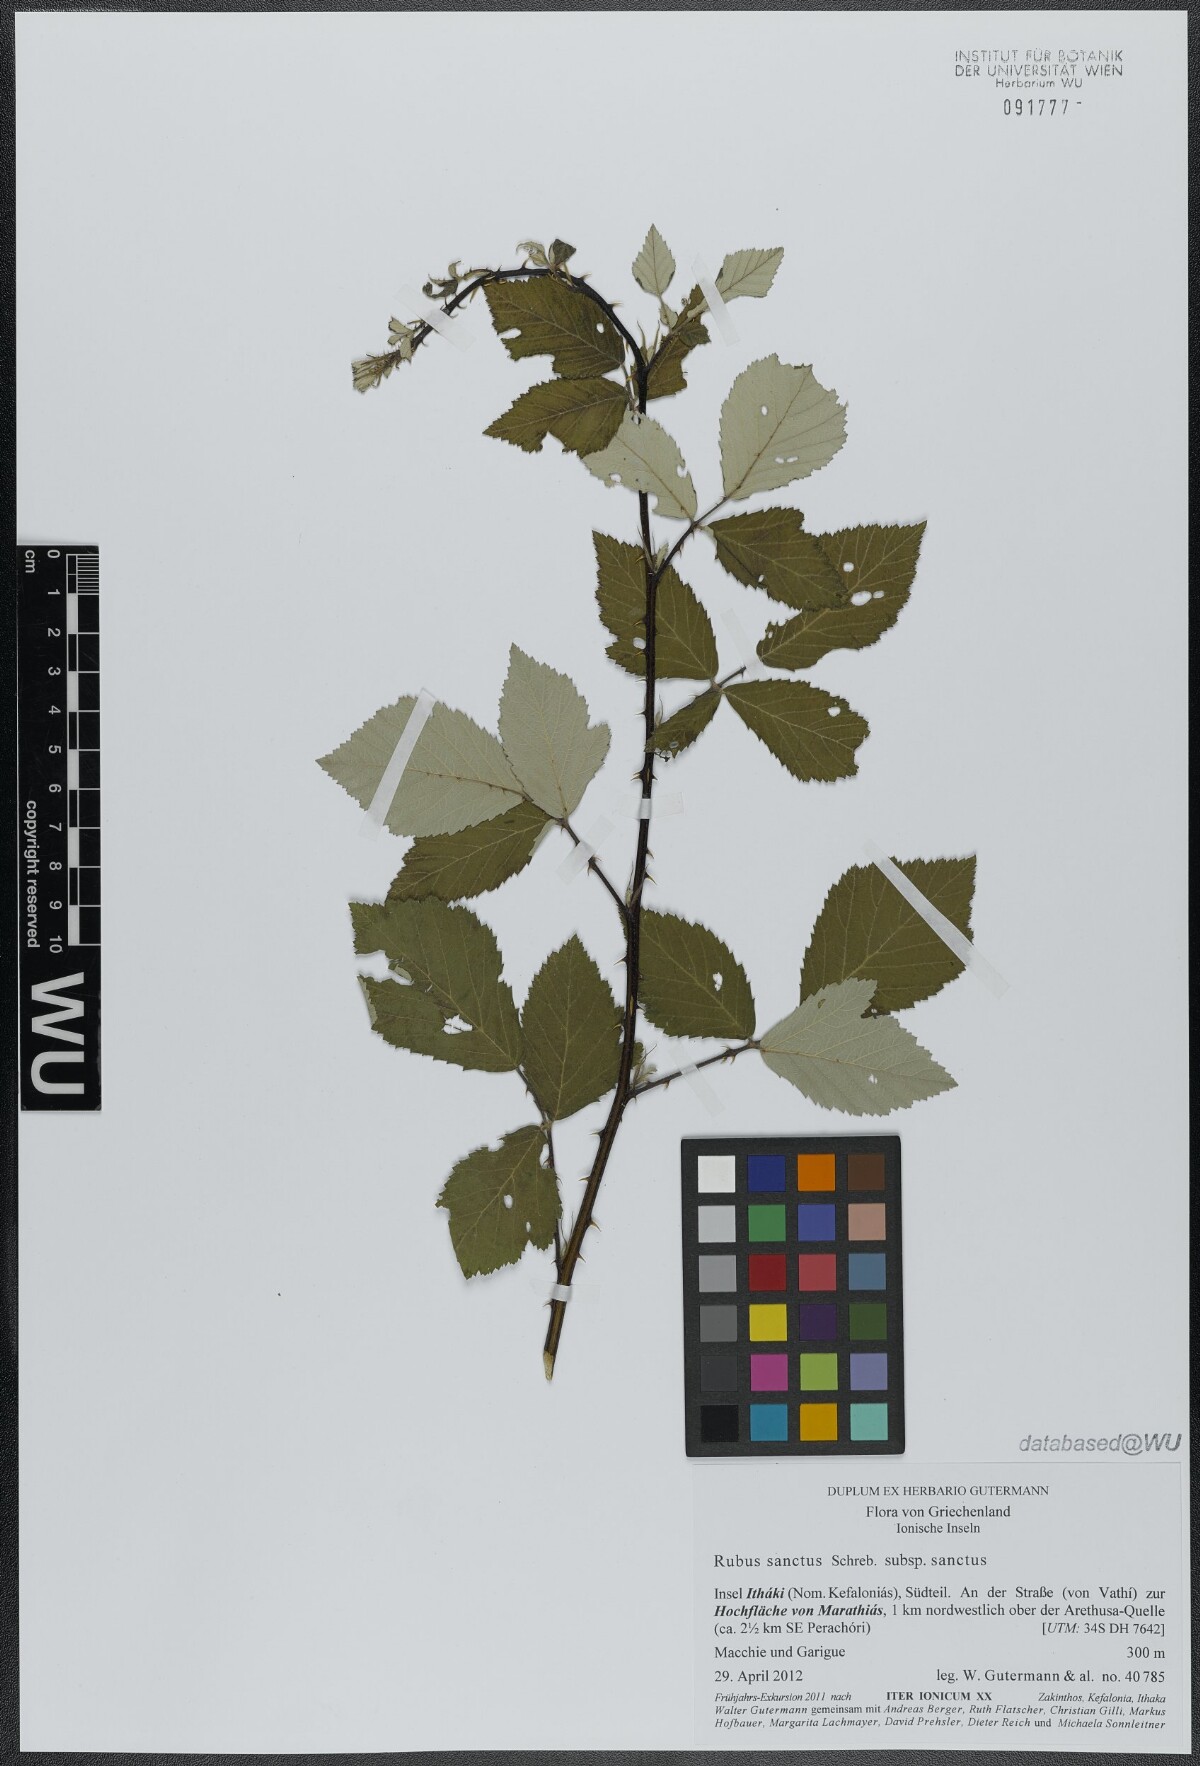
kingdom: Plantae
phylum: Tracheophyta
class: Magnoliopsida
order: Rosales
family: Rosaceae
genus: Rubus
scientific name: Rubus sanctus
